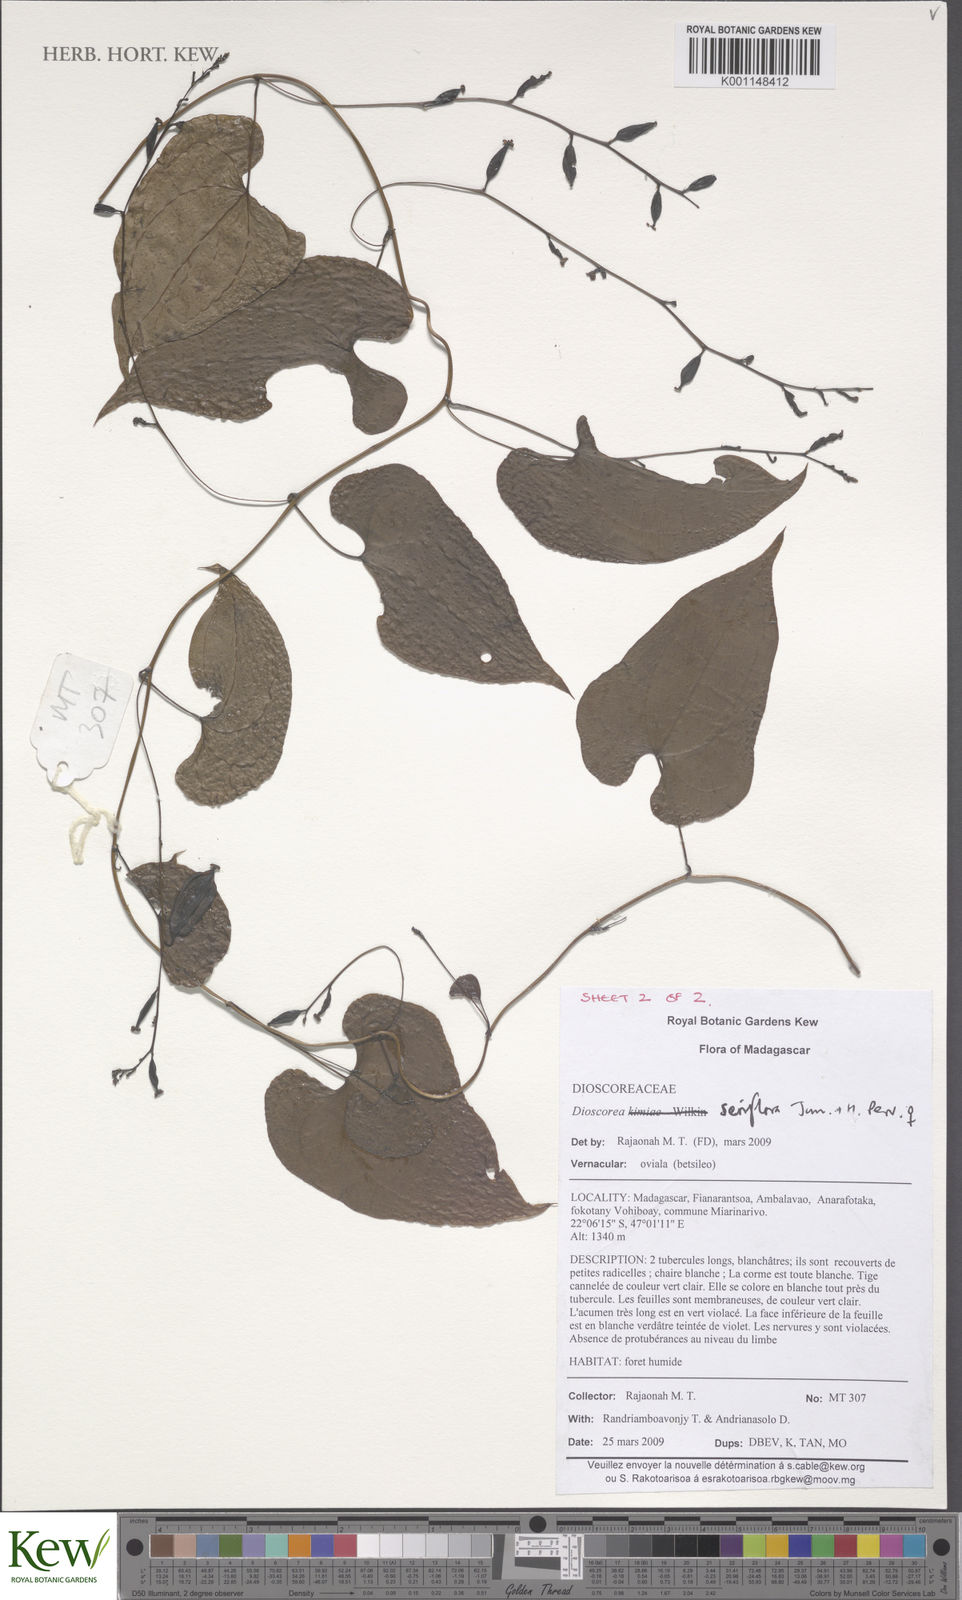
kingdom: Plantae
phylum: Tracheophyta
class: Liliopsida
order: Dioscoreales
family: Dioscoreaceae
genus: Dioscorea
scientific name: Dioscorea seriflora
